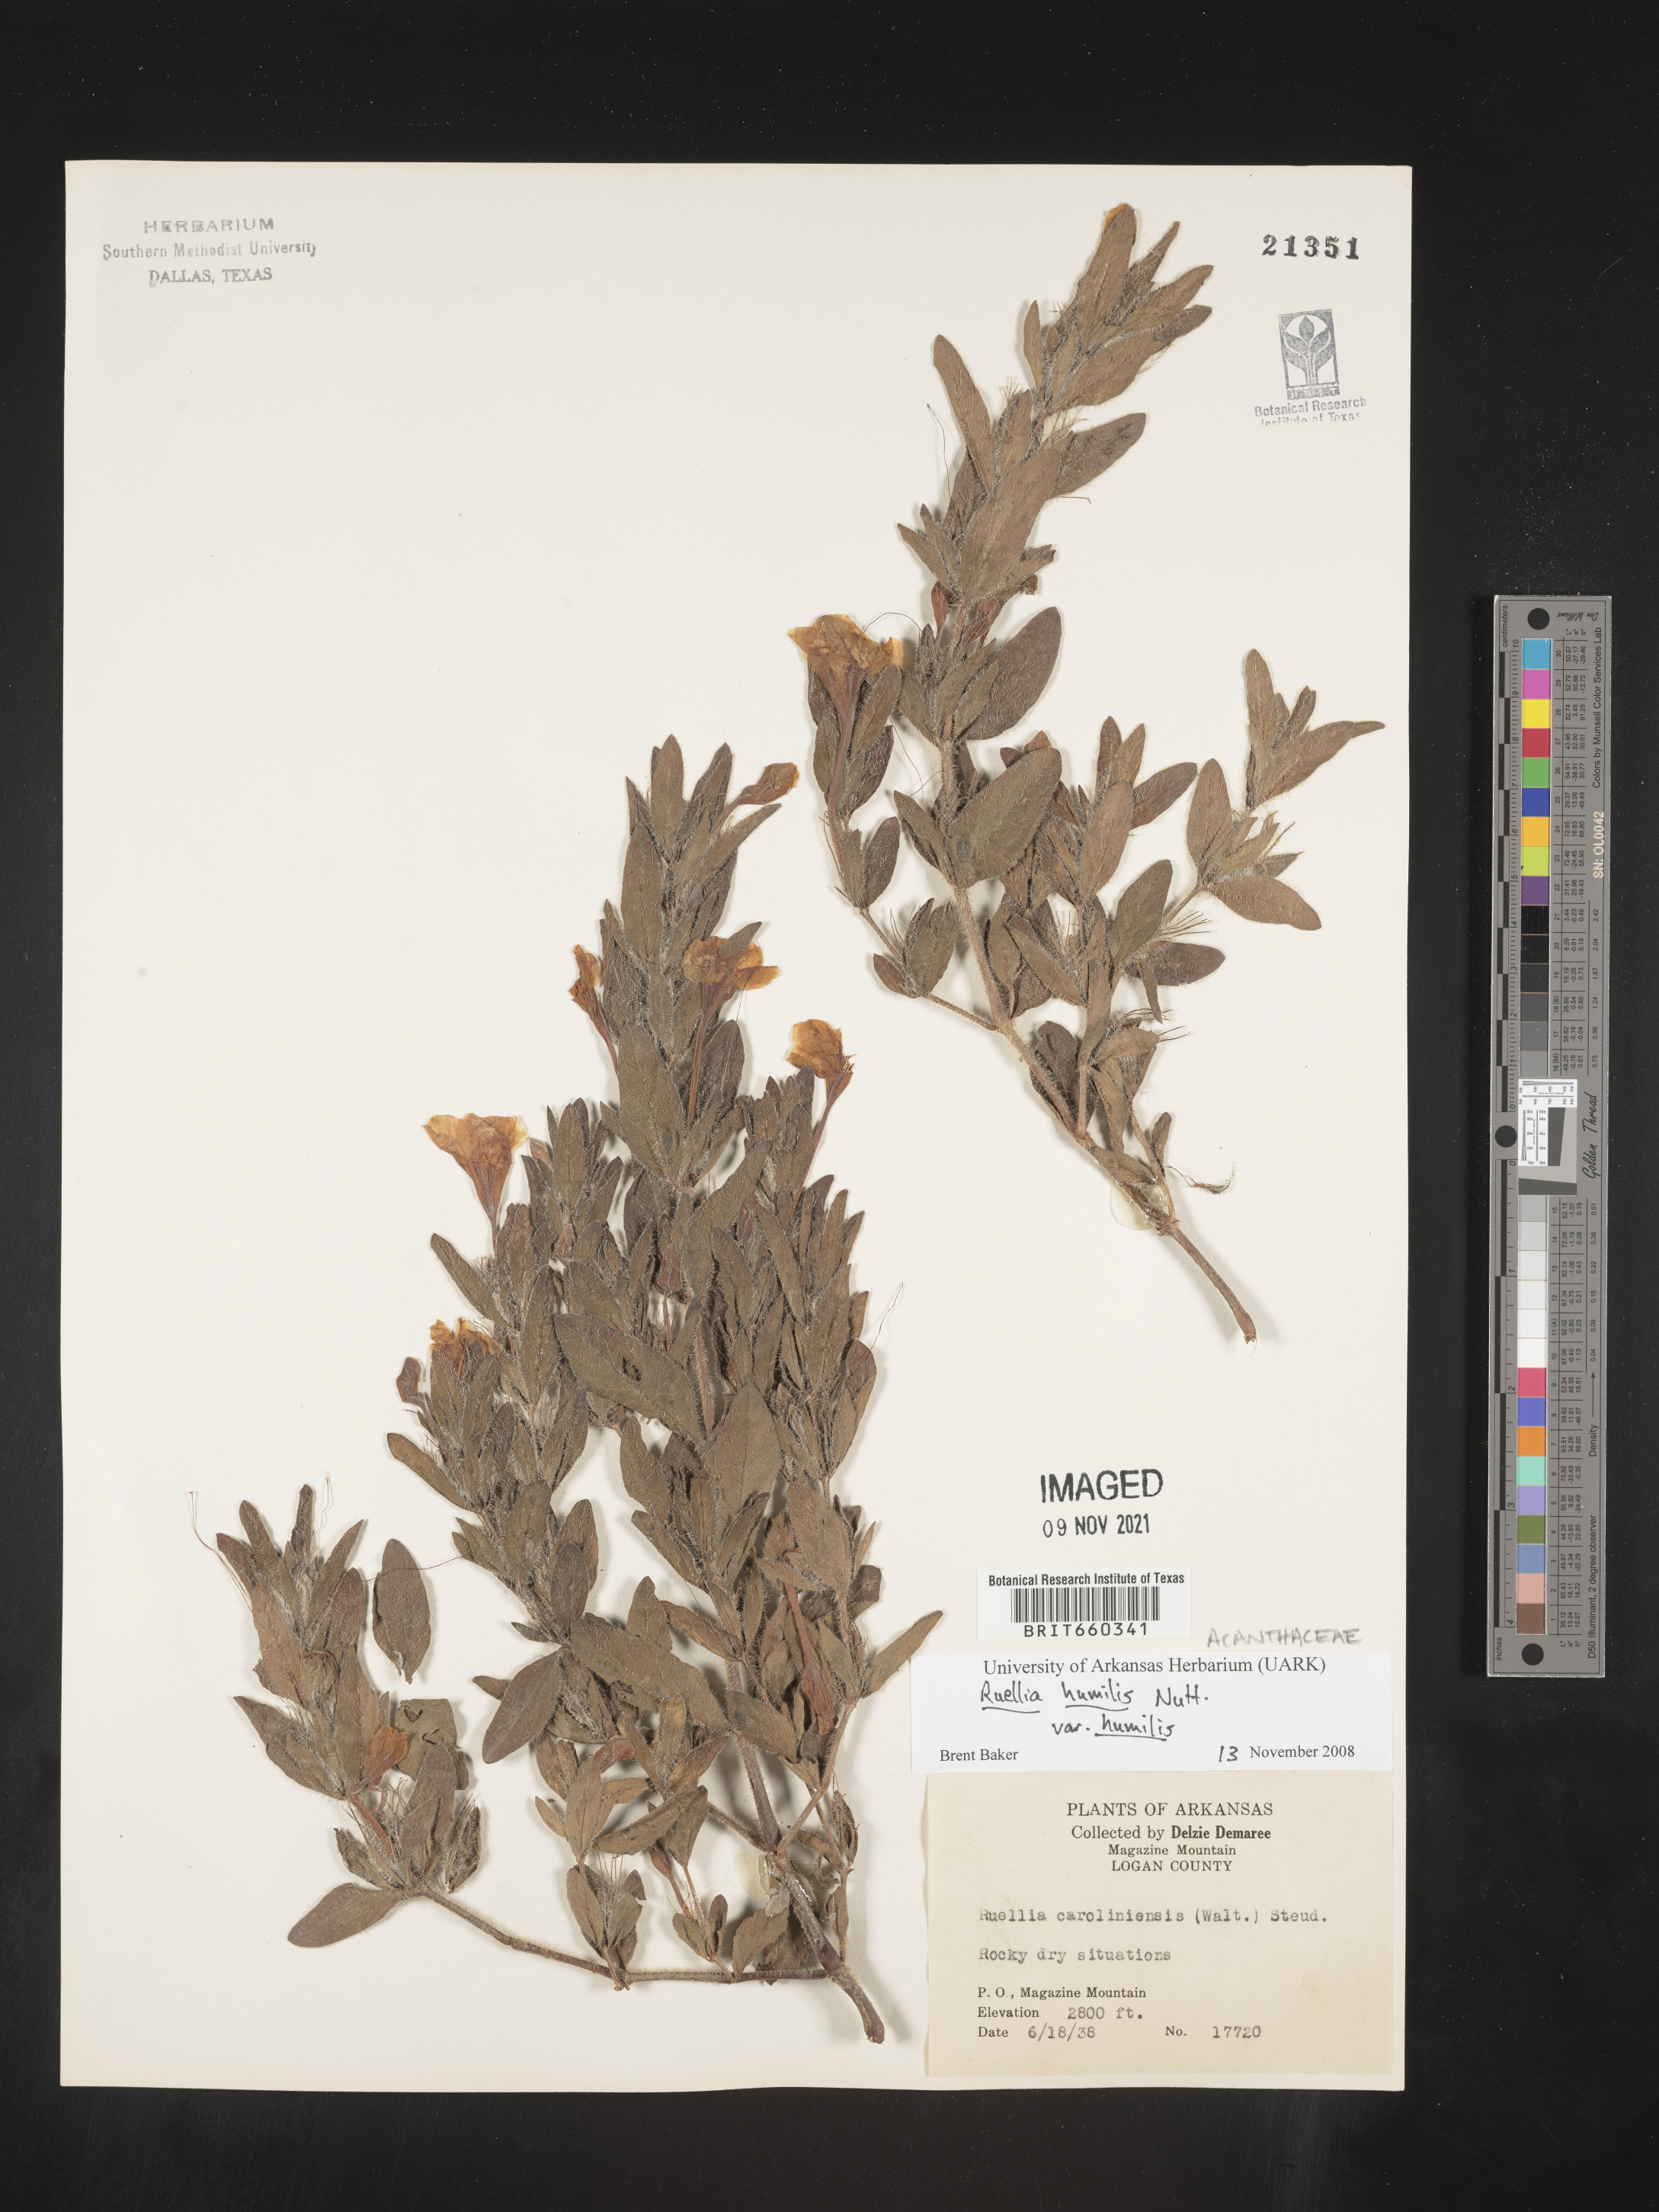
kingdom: Plantae
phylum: Tracheophyta
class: Magnoliopsida
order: Lamiales
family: Acanthaceae
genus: Ruellia
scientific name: Ruellia humilis
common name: Fringe-leaf ruellia
